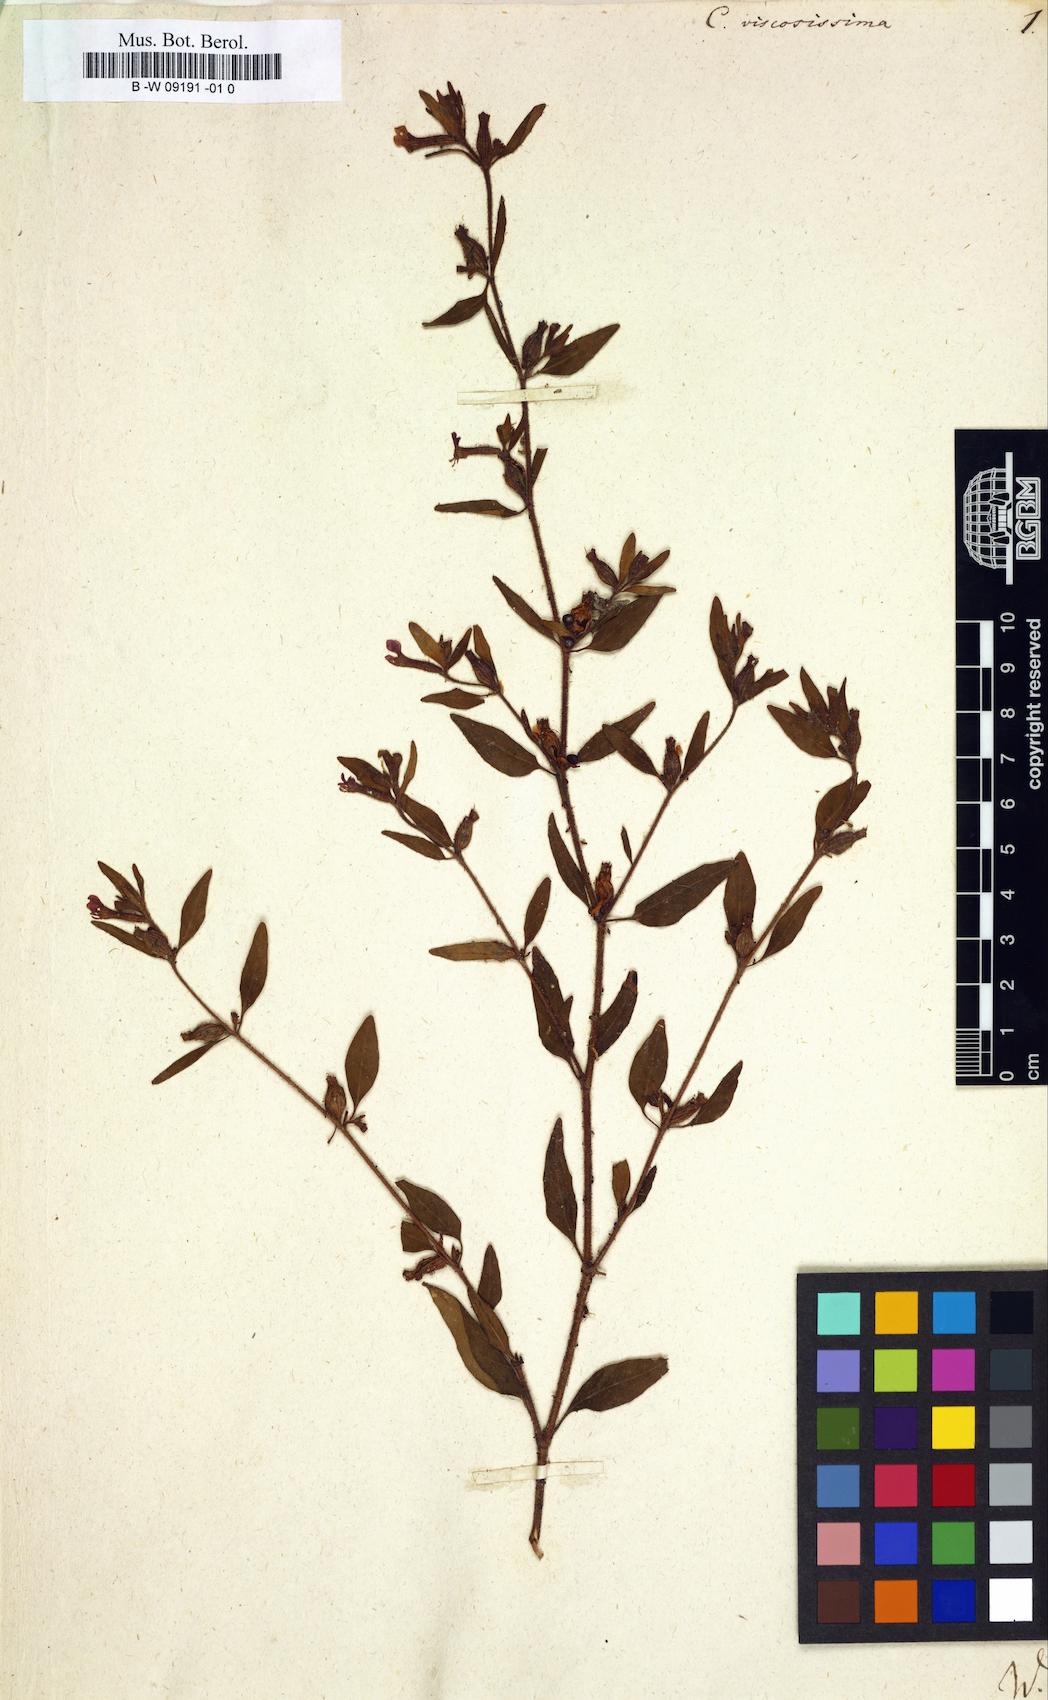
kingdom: Plantae
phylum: Tracheophyta
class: Magnoliopsida
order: Myrtales
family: Lythraceae
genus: Cuphea
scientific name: Cuphea viscosissima
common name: Clammy cuphea
